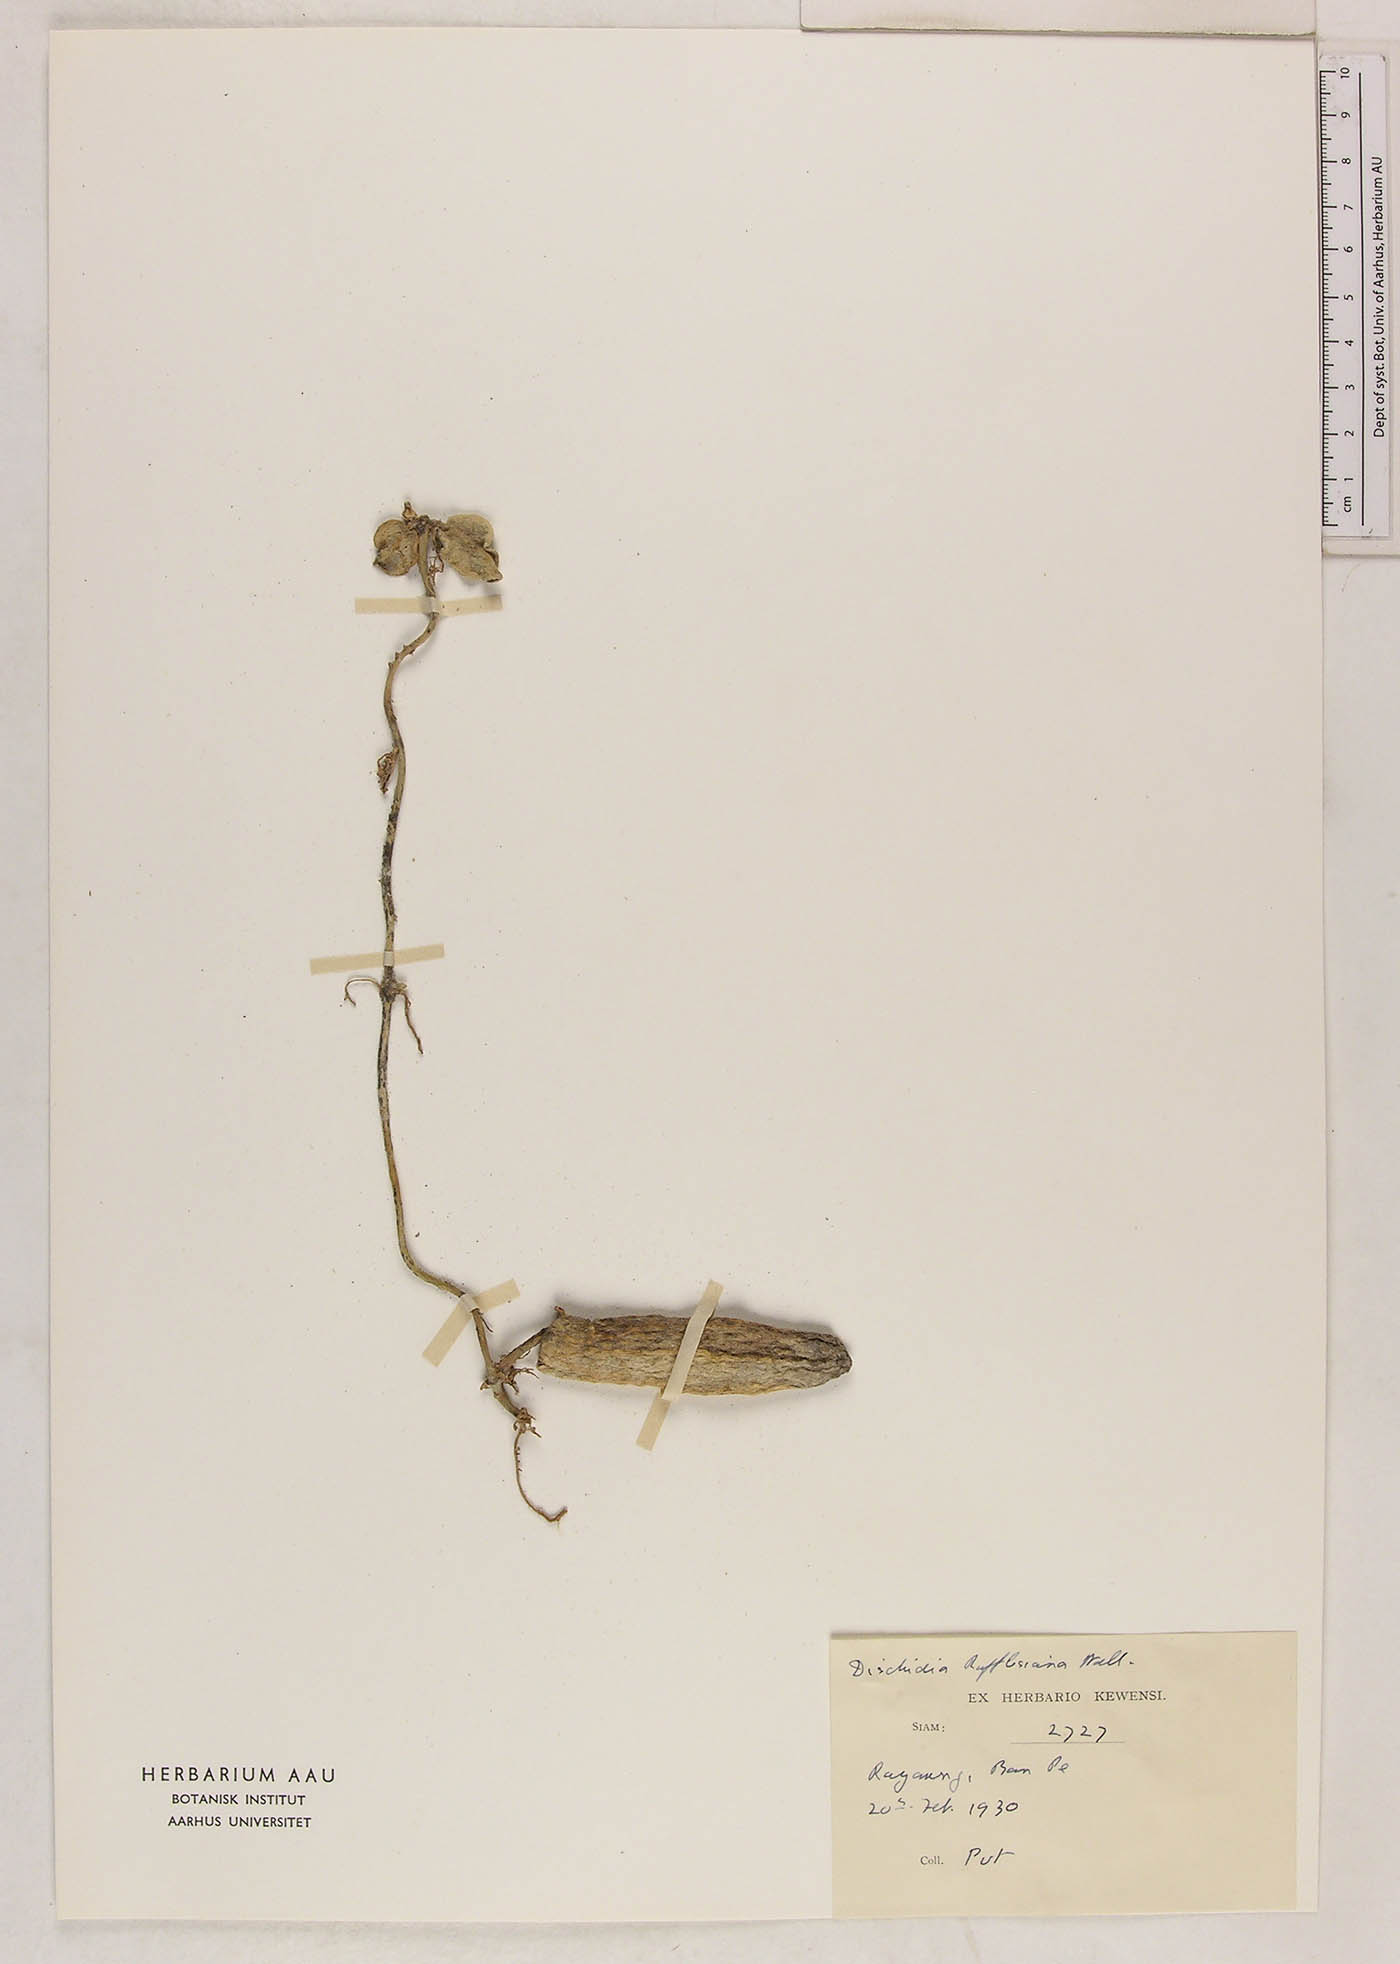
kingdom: Plantae
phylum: Tracheophyta
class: Magnoliopsida
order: Gentianales
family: Apocynaceae
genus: Dischidia
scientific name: Dischidia major
